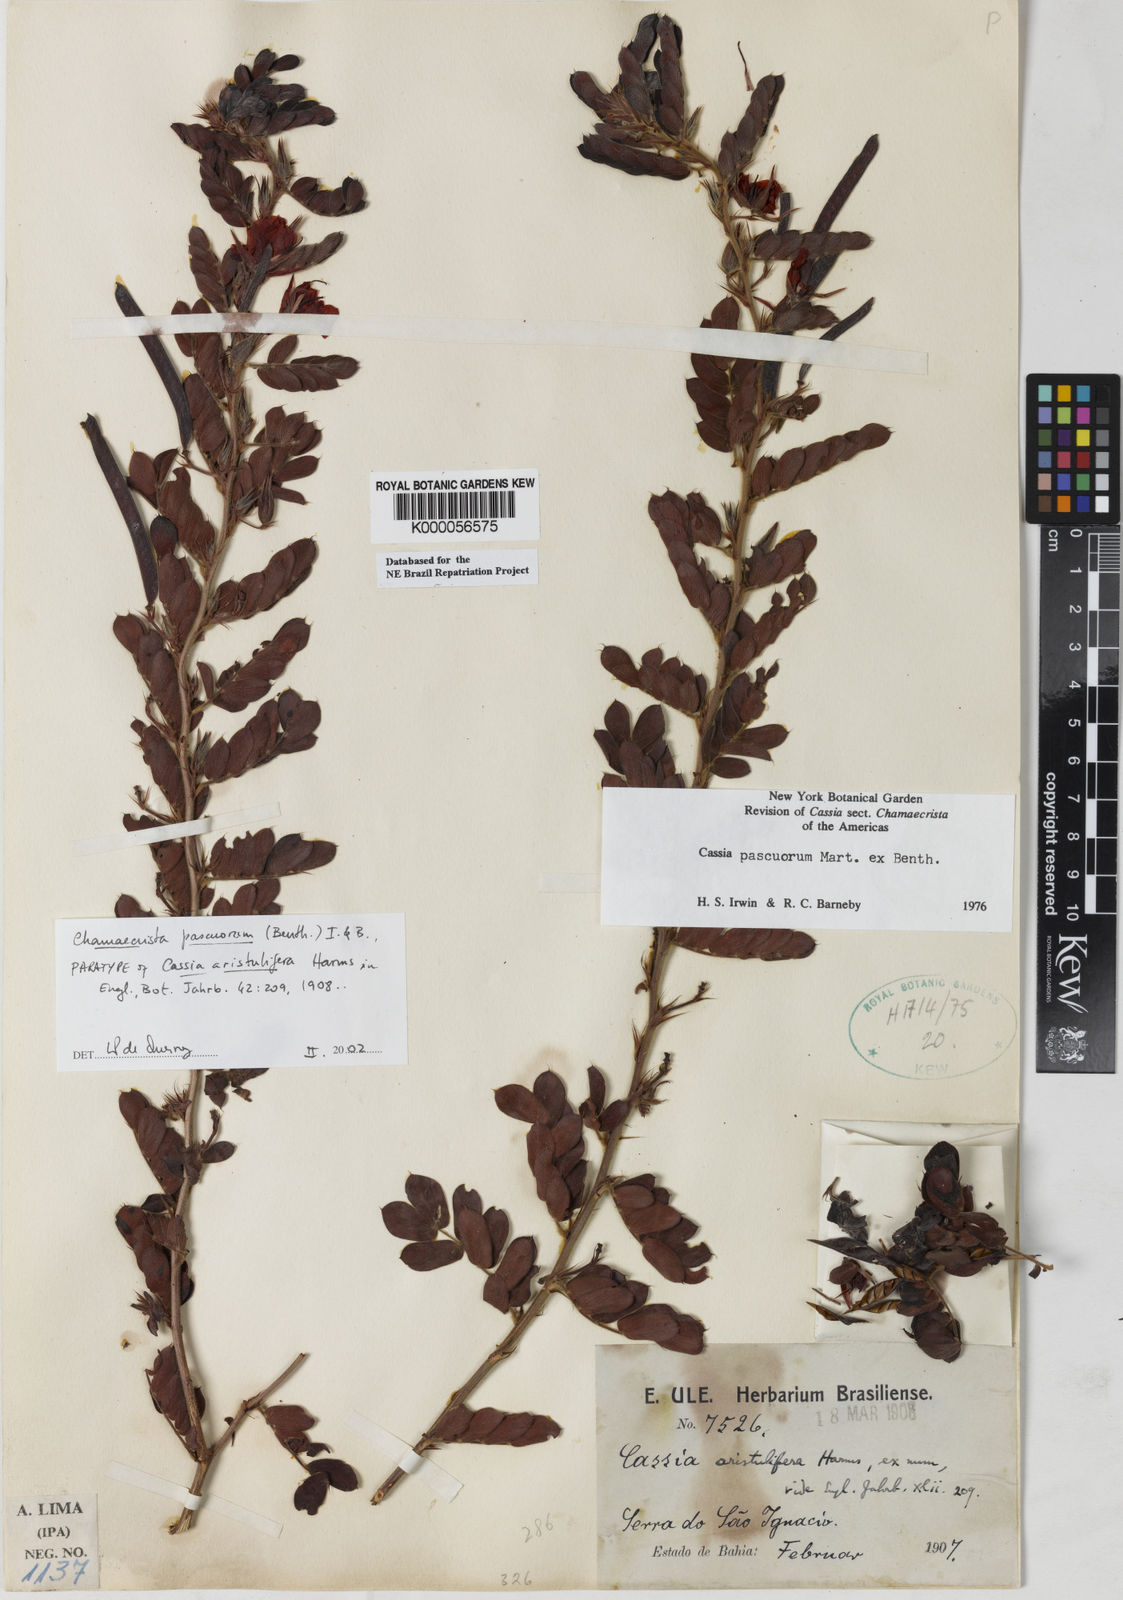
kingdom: Plantae
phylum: Tracheophyta
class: Magnoliopsida
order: Fabales
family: Fabaceae
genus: Chamaecrista
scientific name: Chamaecrista pascuorum
